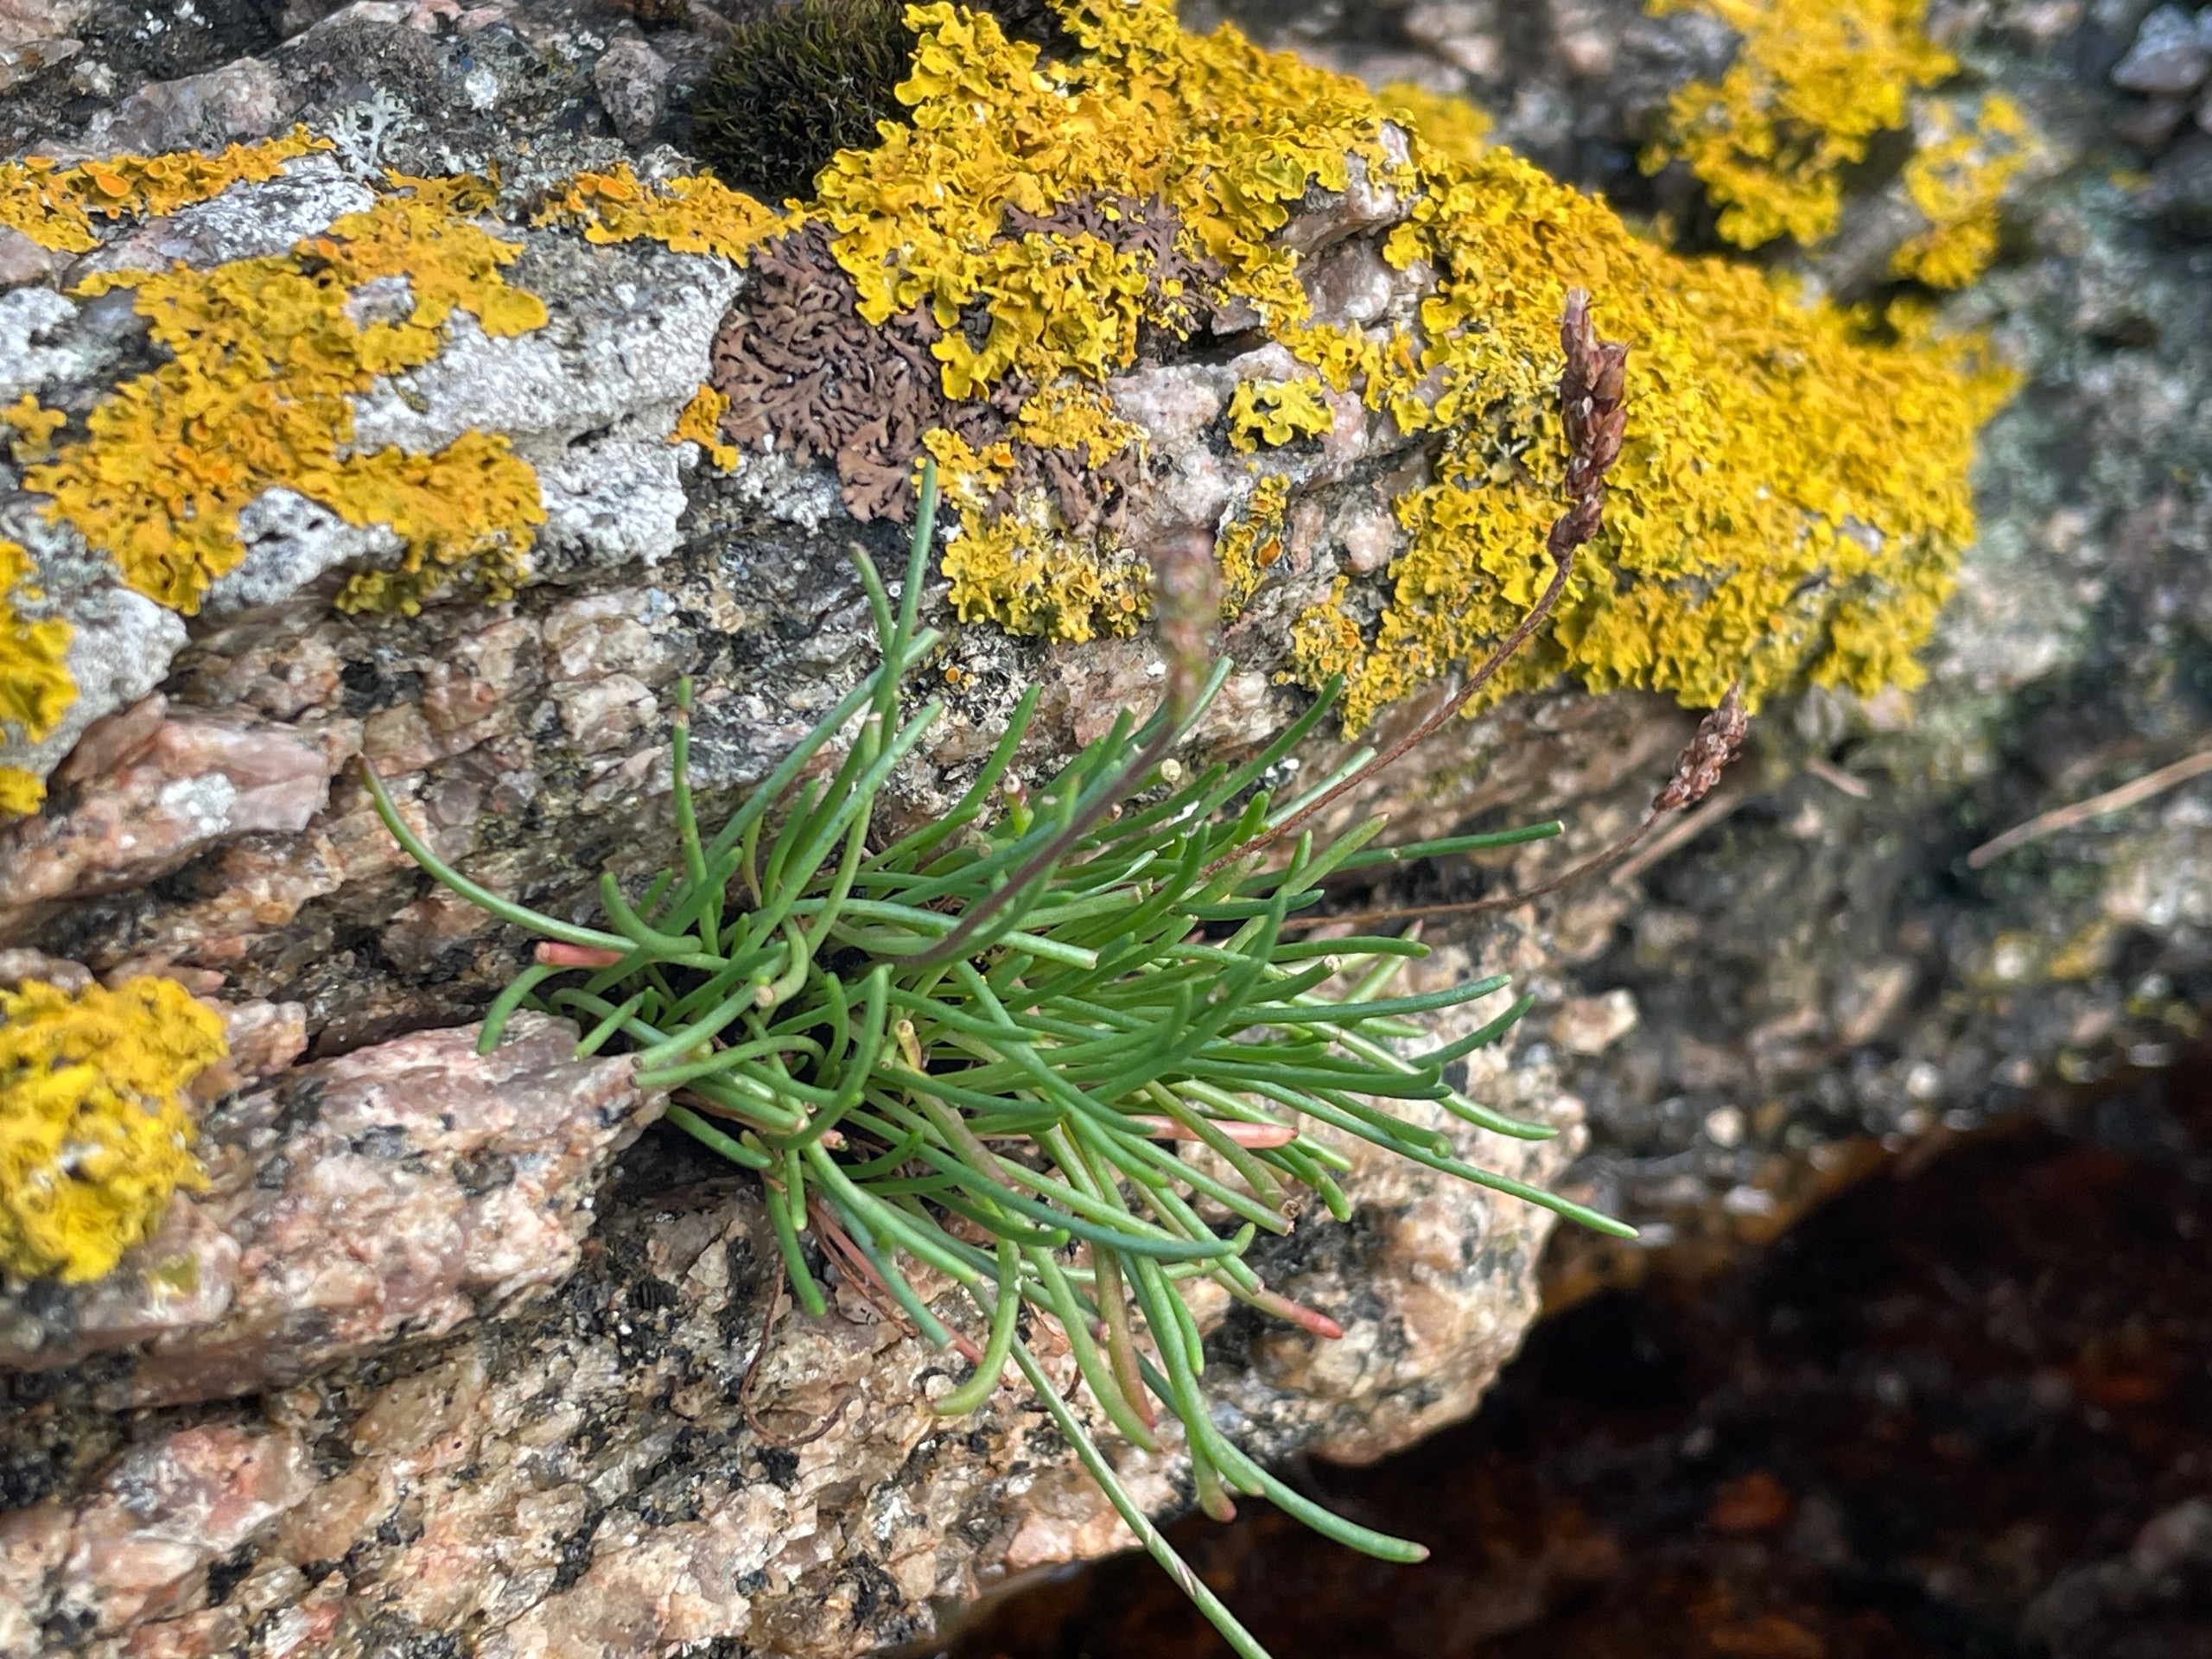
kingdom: Plantae
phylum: Tracheophyta
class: Magnoliopsida
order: Lamiales
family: Plantaginaceae
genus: Plantago
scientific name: Plantago maritima
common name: Strand-vejbred
